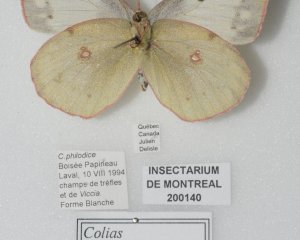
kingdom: Animalia
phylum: Arthropoda
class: Insecta
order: Lepidoptera
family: Pieridae
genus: Colias
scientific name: Colias philodice
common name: Clouded Sulphur
